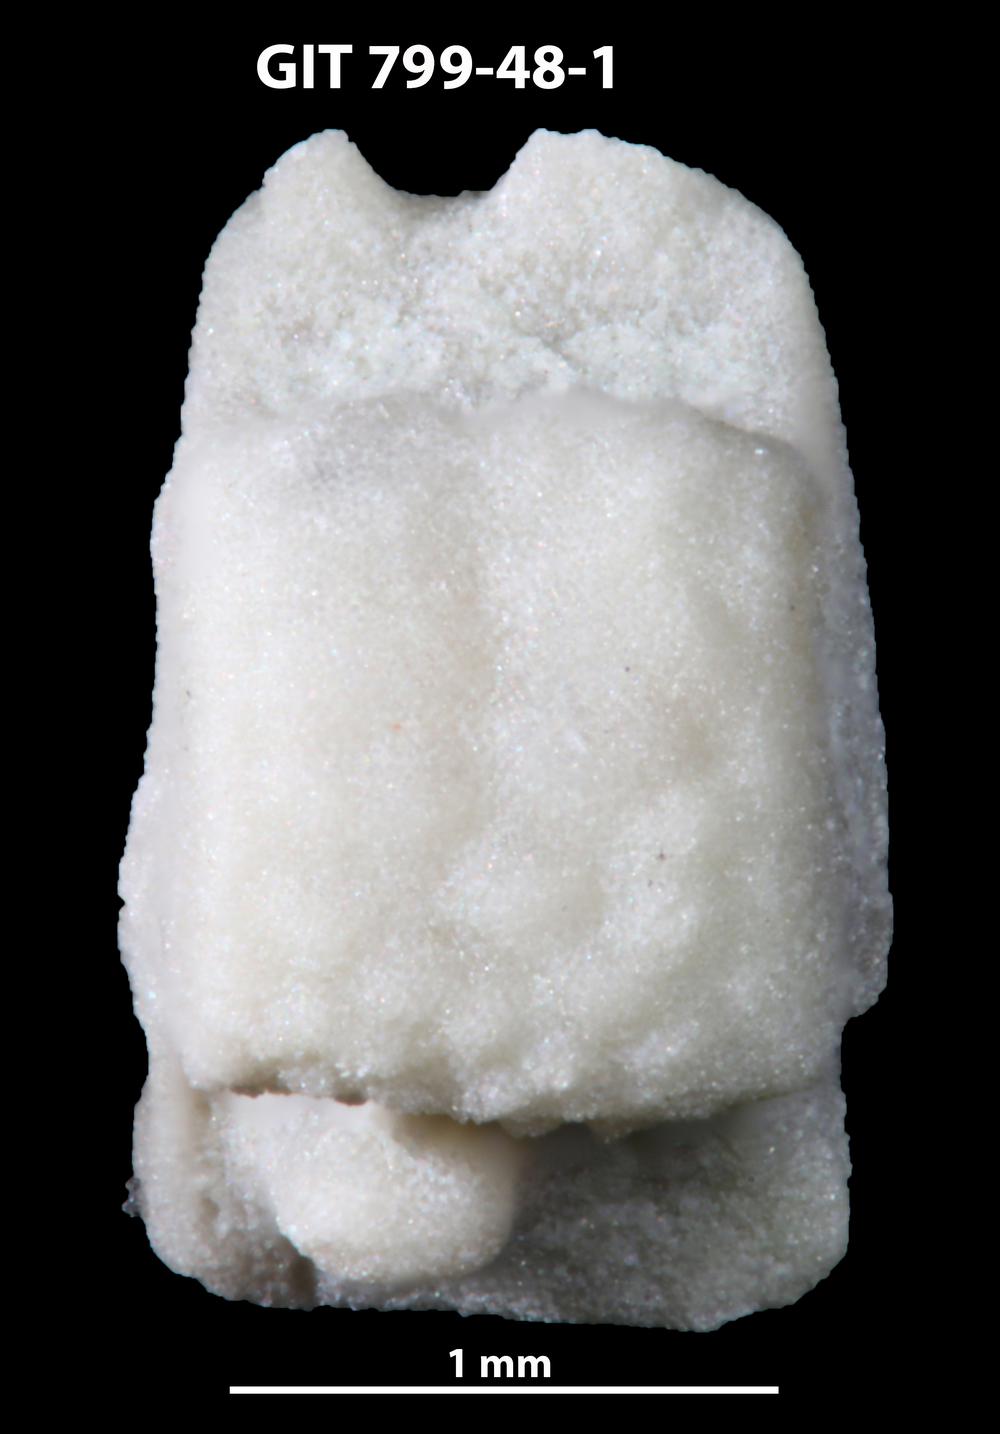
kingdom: Animalia
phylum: Echinodermata
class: Crinoidea
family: Cyclocystoididae
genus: Polytryphocycloides
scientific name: Polytryphocycloides Cyclocystoides lindstroemi
